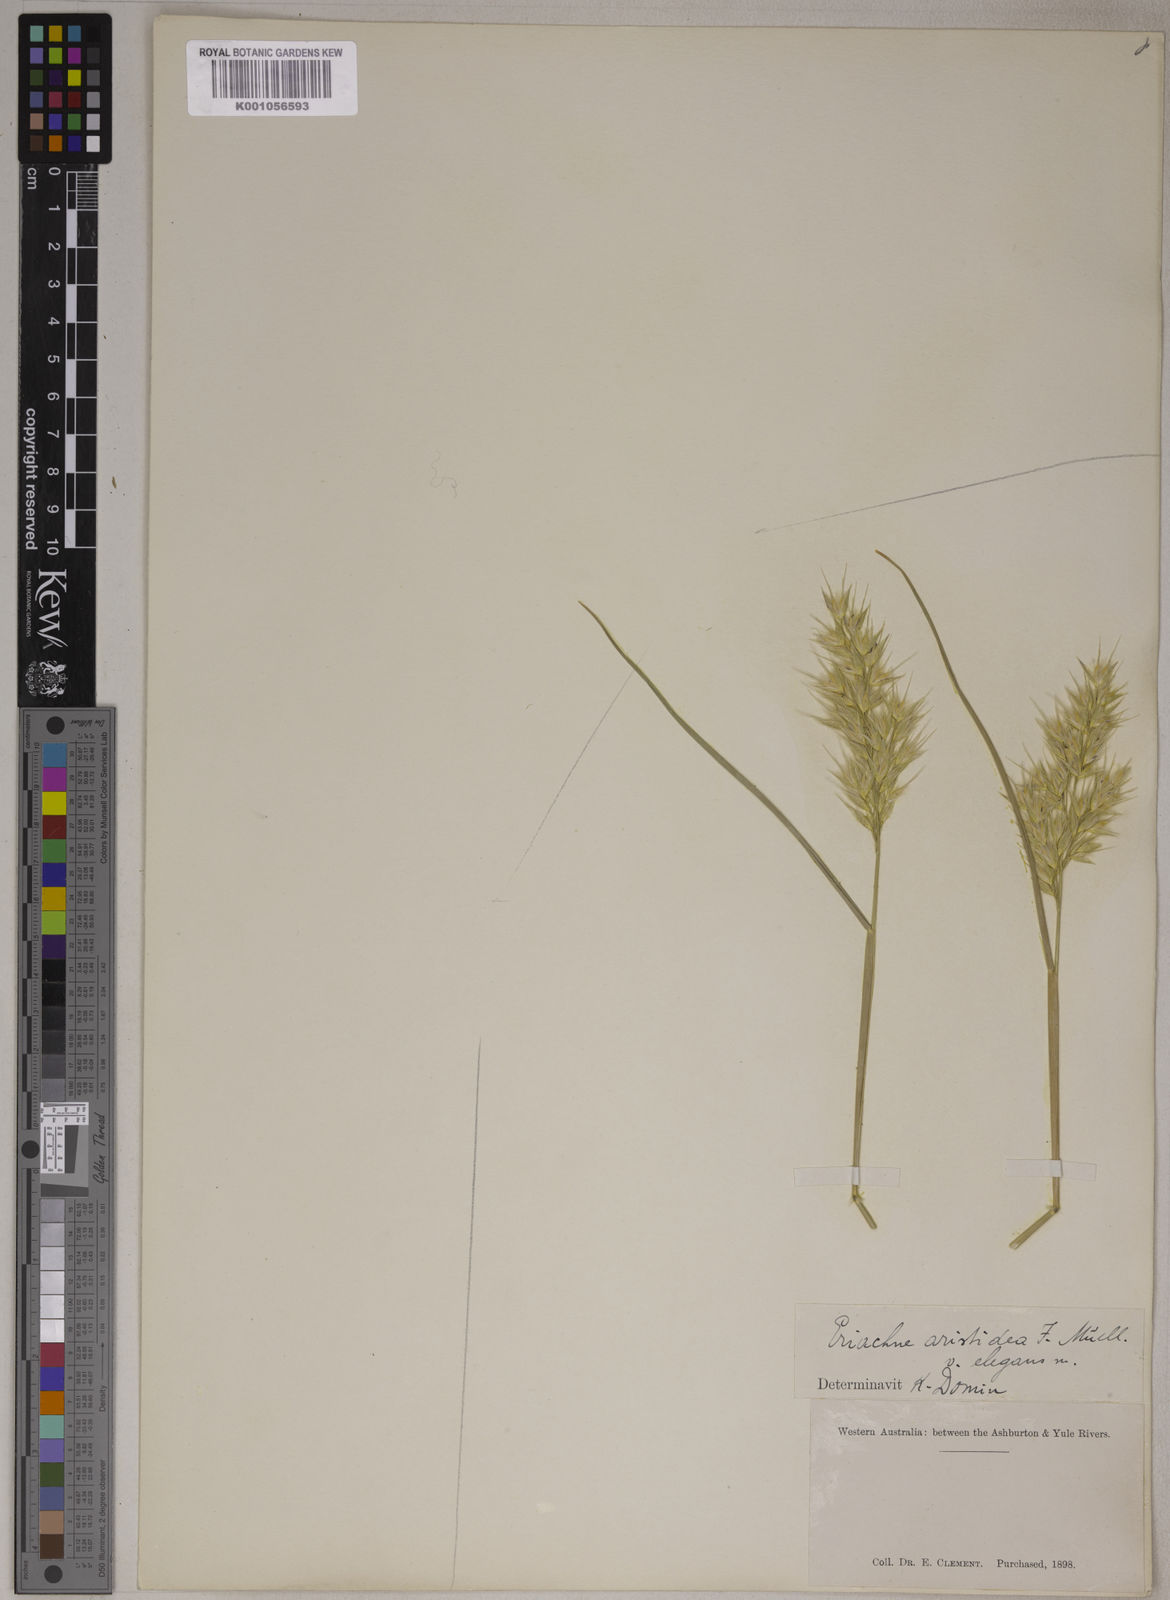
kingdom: Plantae
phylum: Tracheophyta
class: Liliopsida
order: Poales
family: Poaceae
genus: Eriachne
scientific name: Eriachne aristidea
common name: Three-awn wanderrie grass
